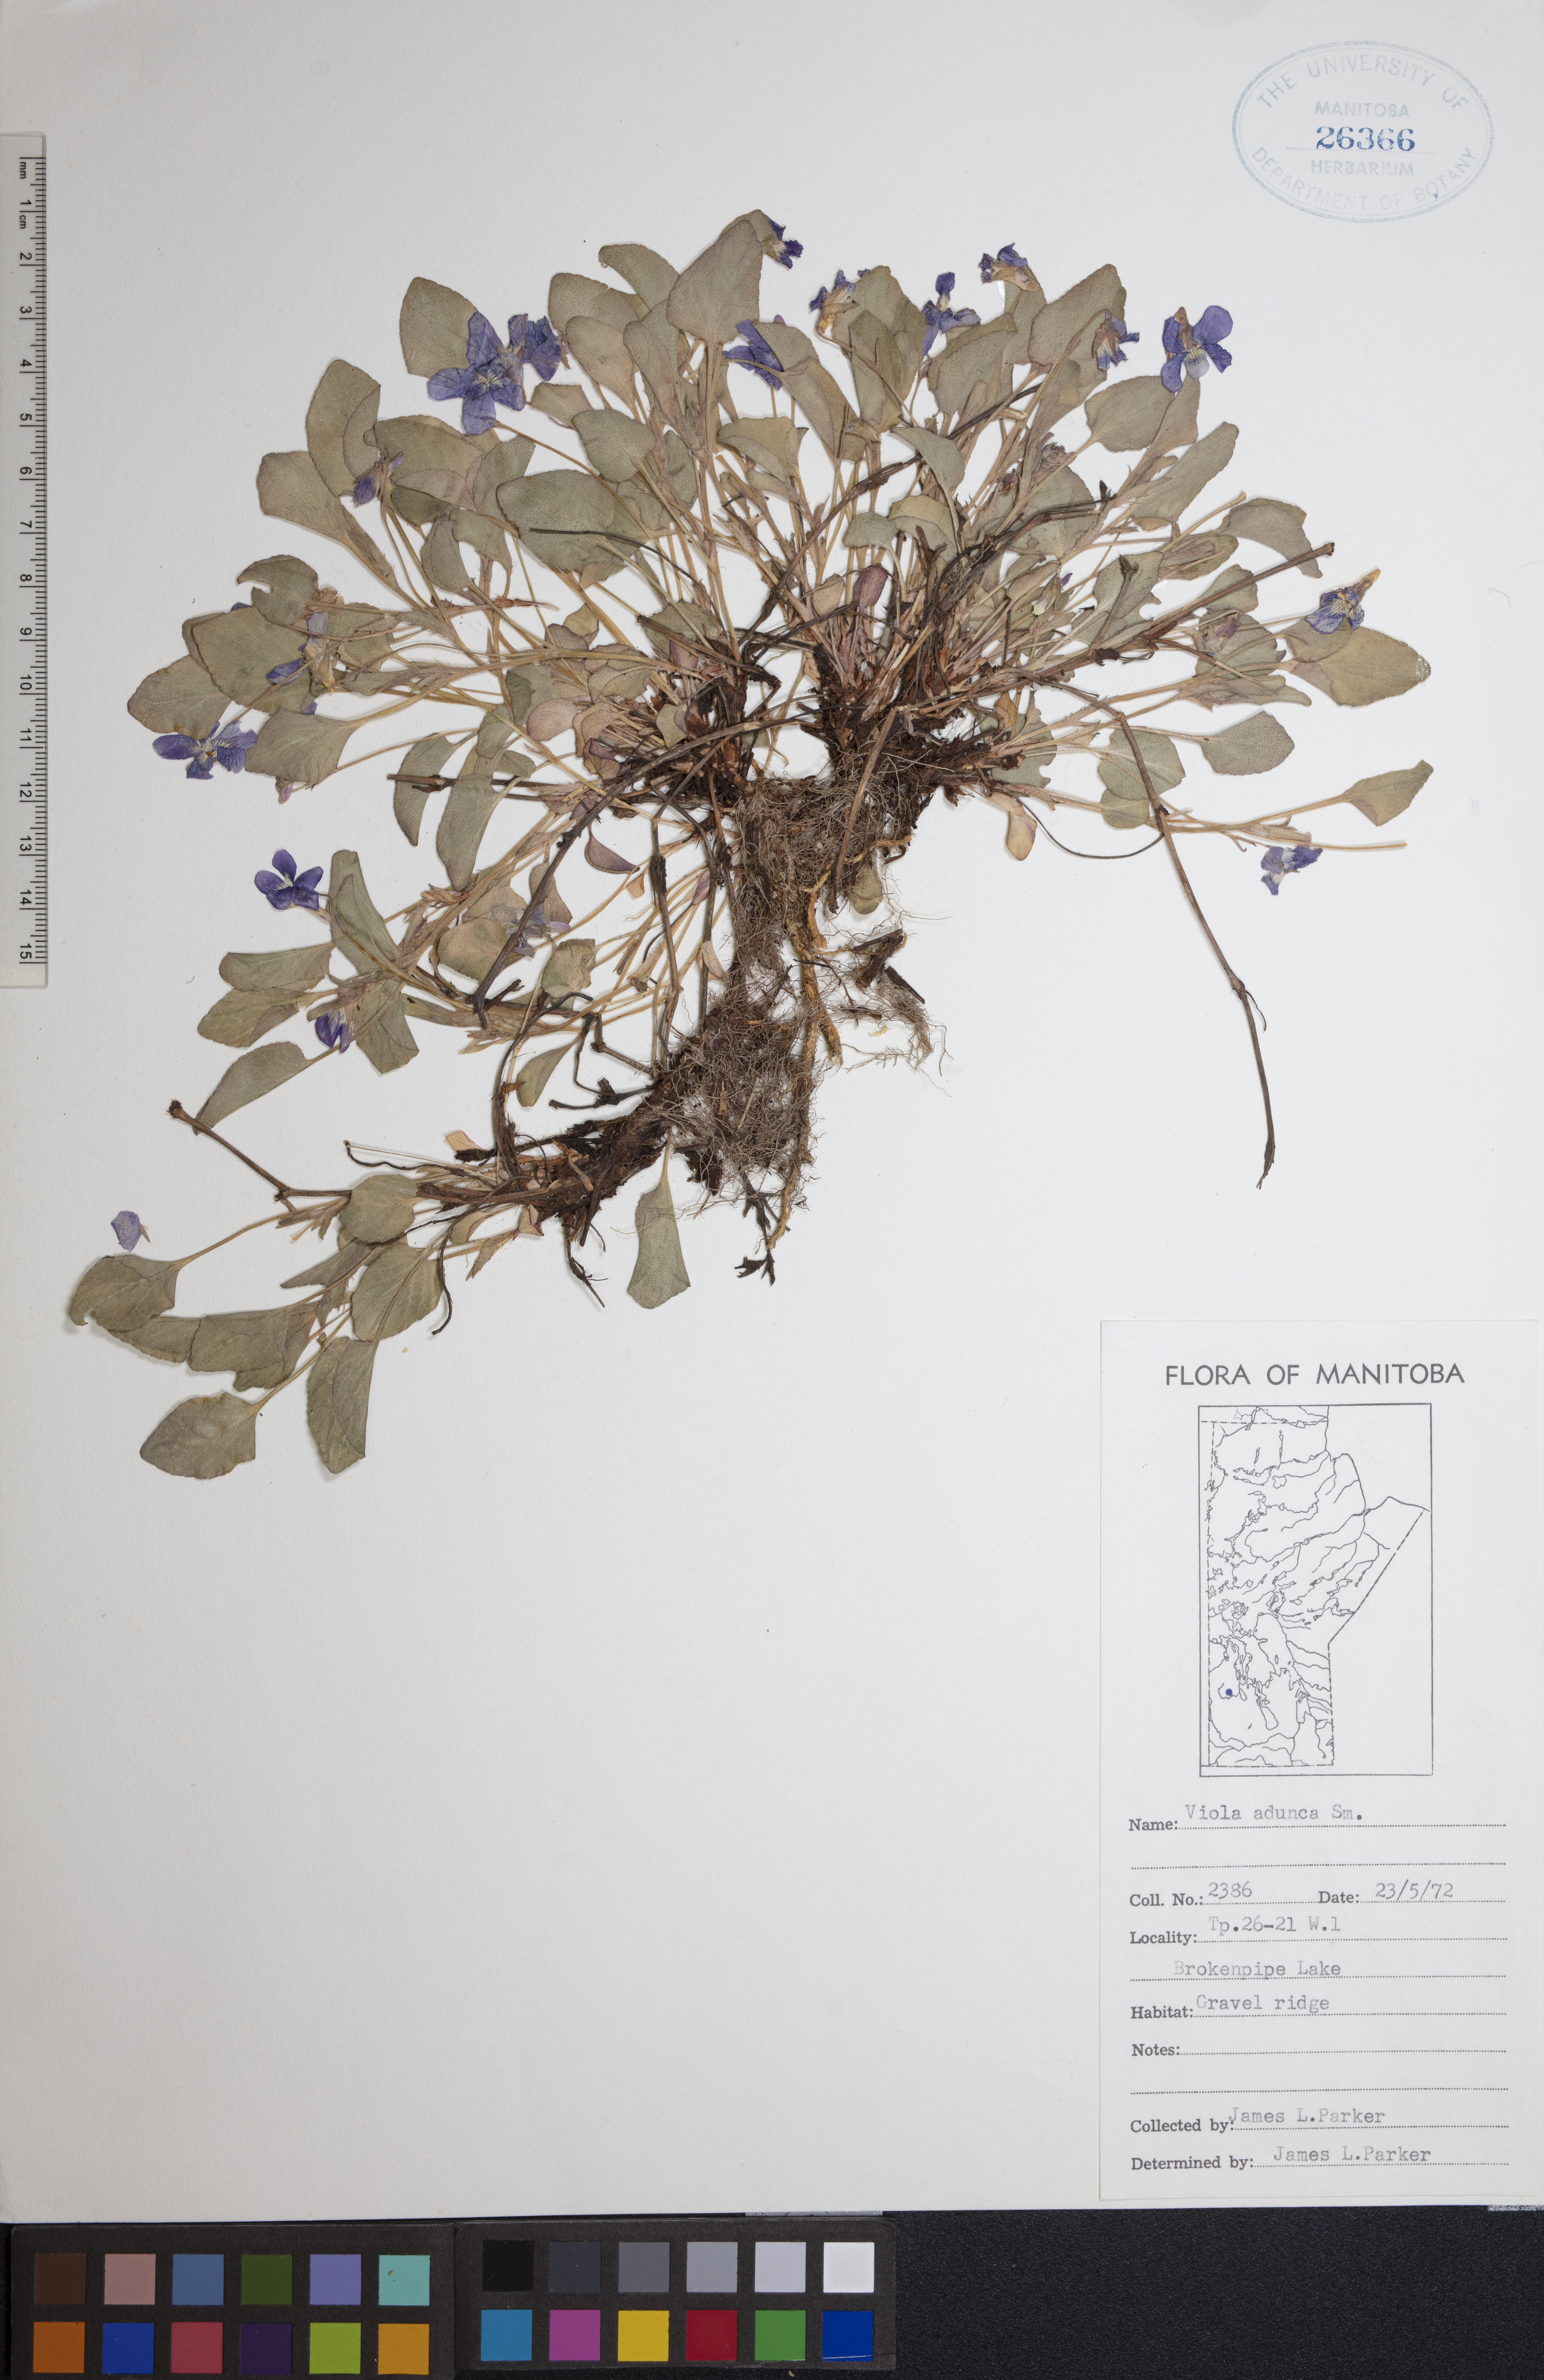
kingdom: Plantae
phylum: Tracheophyta
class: Magnoliopsida
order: Malpighiales
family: Violaceae
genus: Viola
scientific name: Viola adunca
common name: Sand violet
